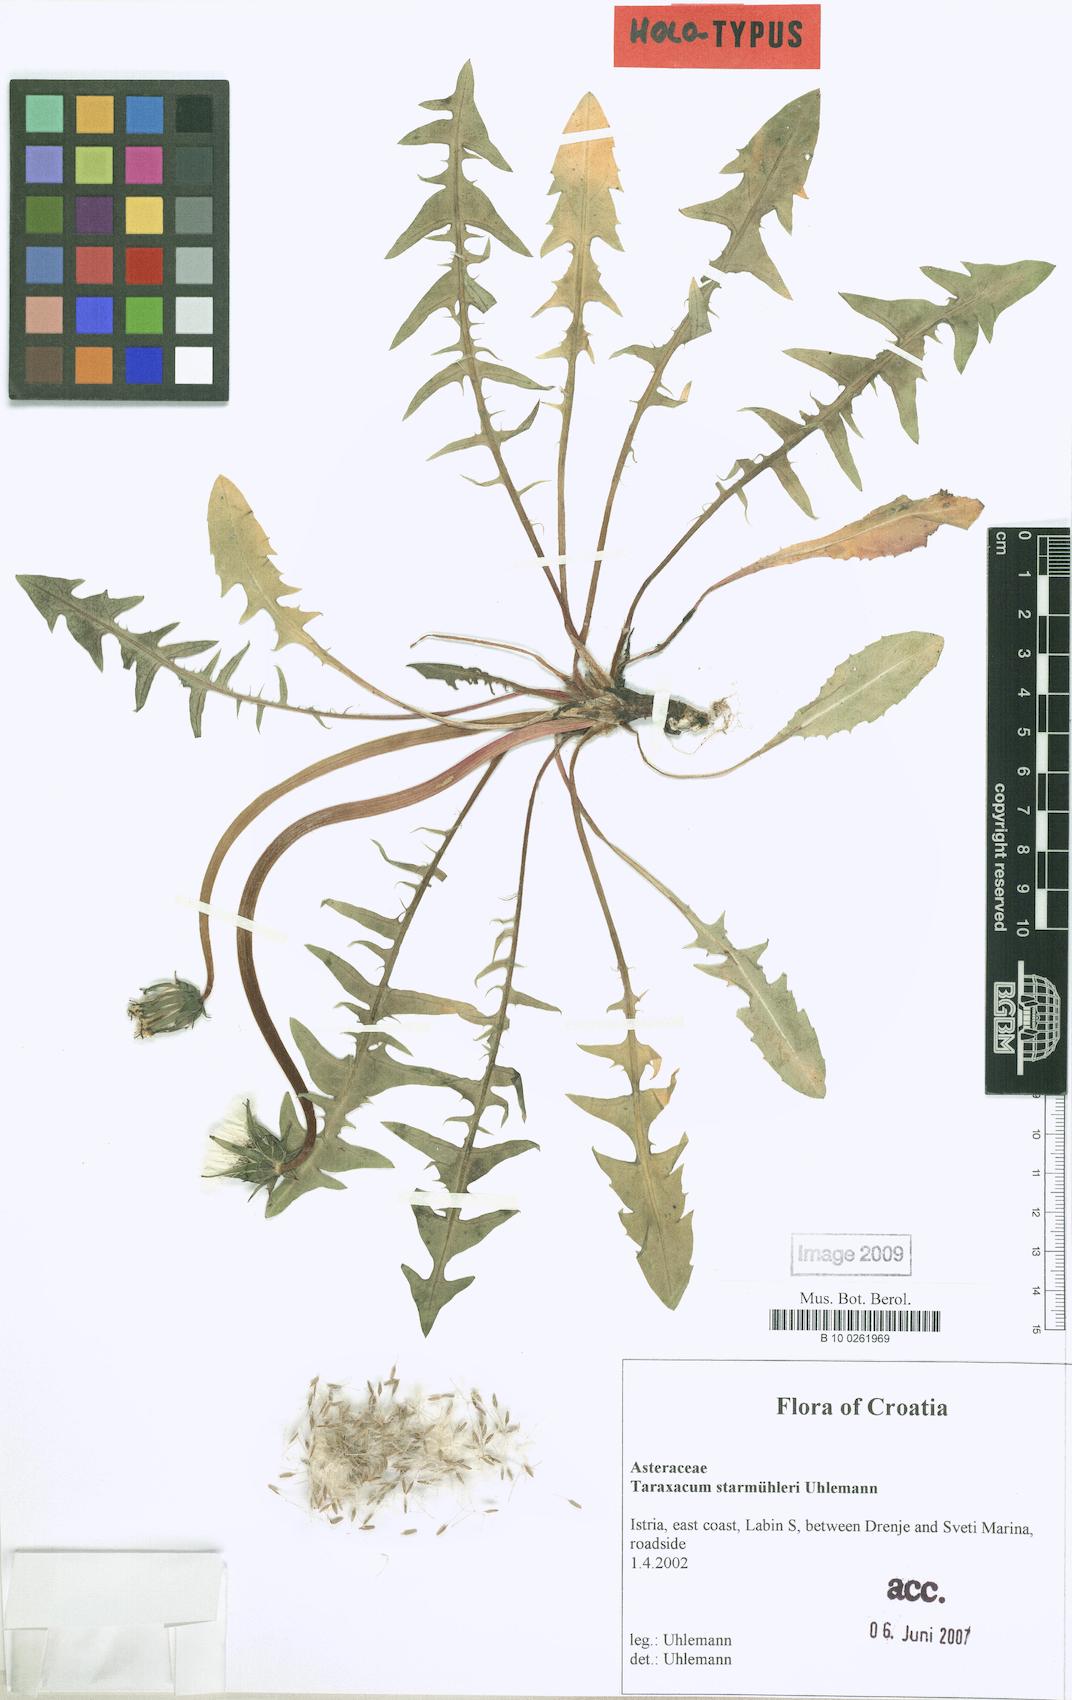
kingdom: Plantae
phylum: Tracheophyta
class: Magnoliopsida
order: Asterales
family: Asteraceae
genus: Taraxacum
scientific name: Taraxacum starmuehleri
